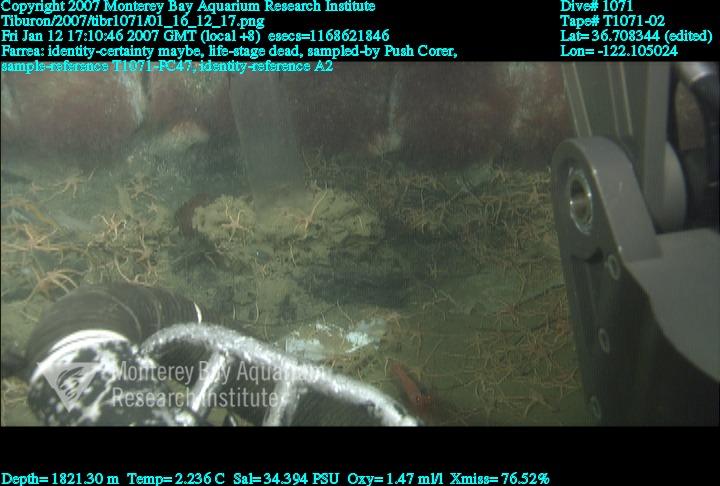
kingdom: Animalia
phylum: Porifera
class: Hexactinellida
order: Sceptrulophora
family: Farreidae
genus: Farrea
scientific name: Farrea
